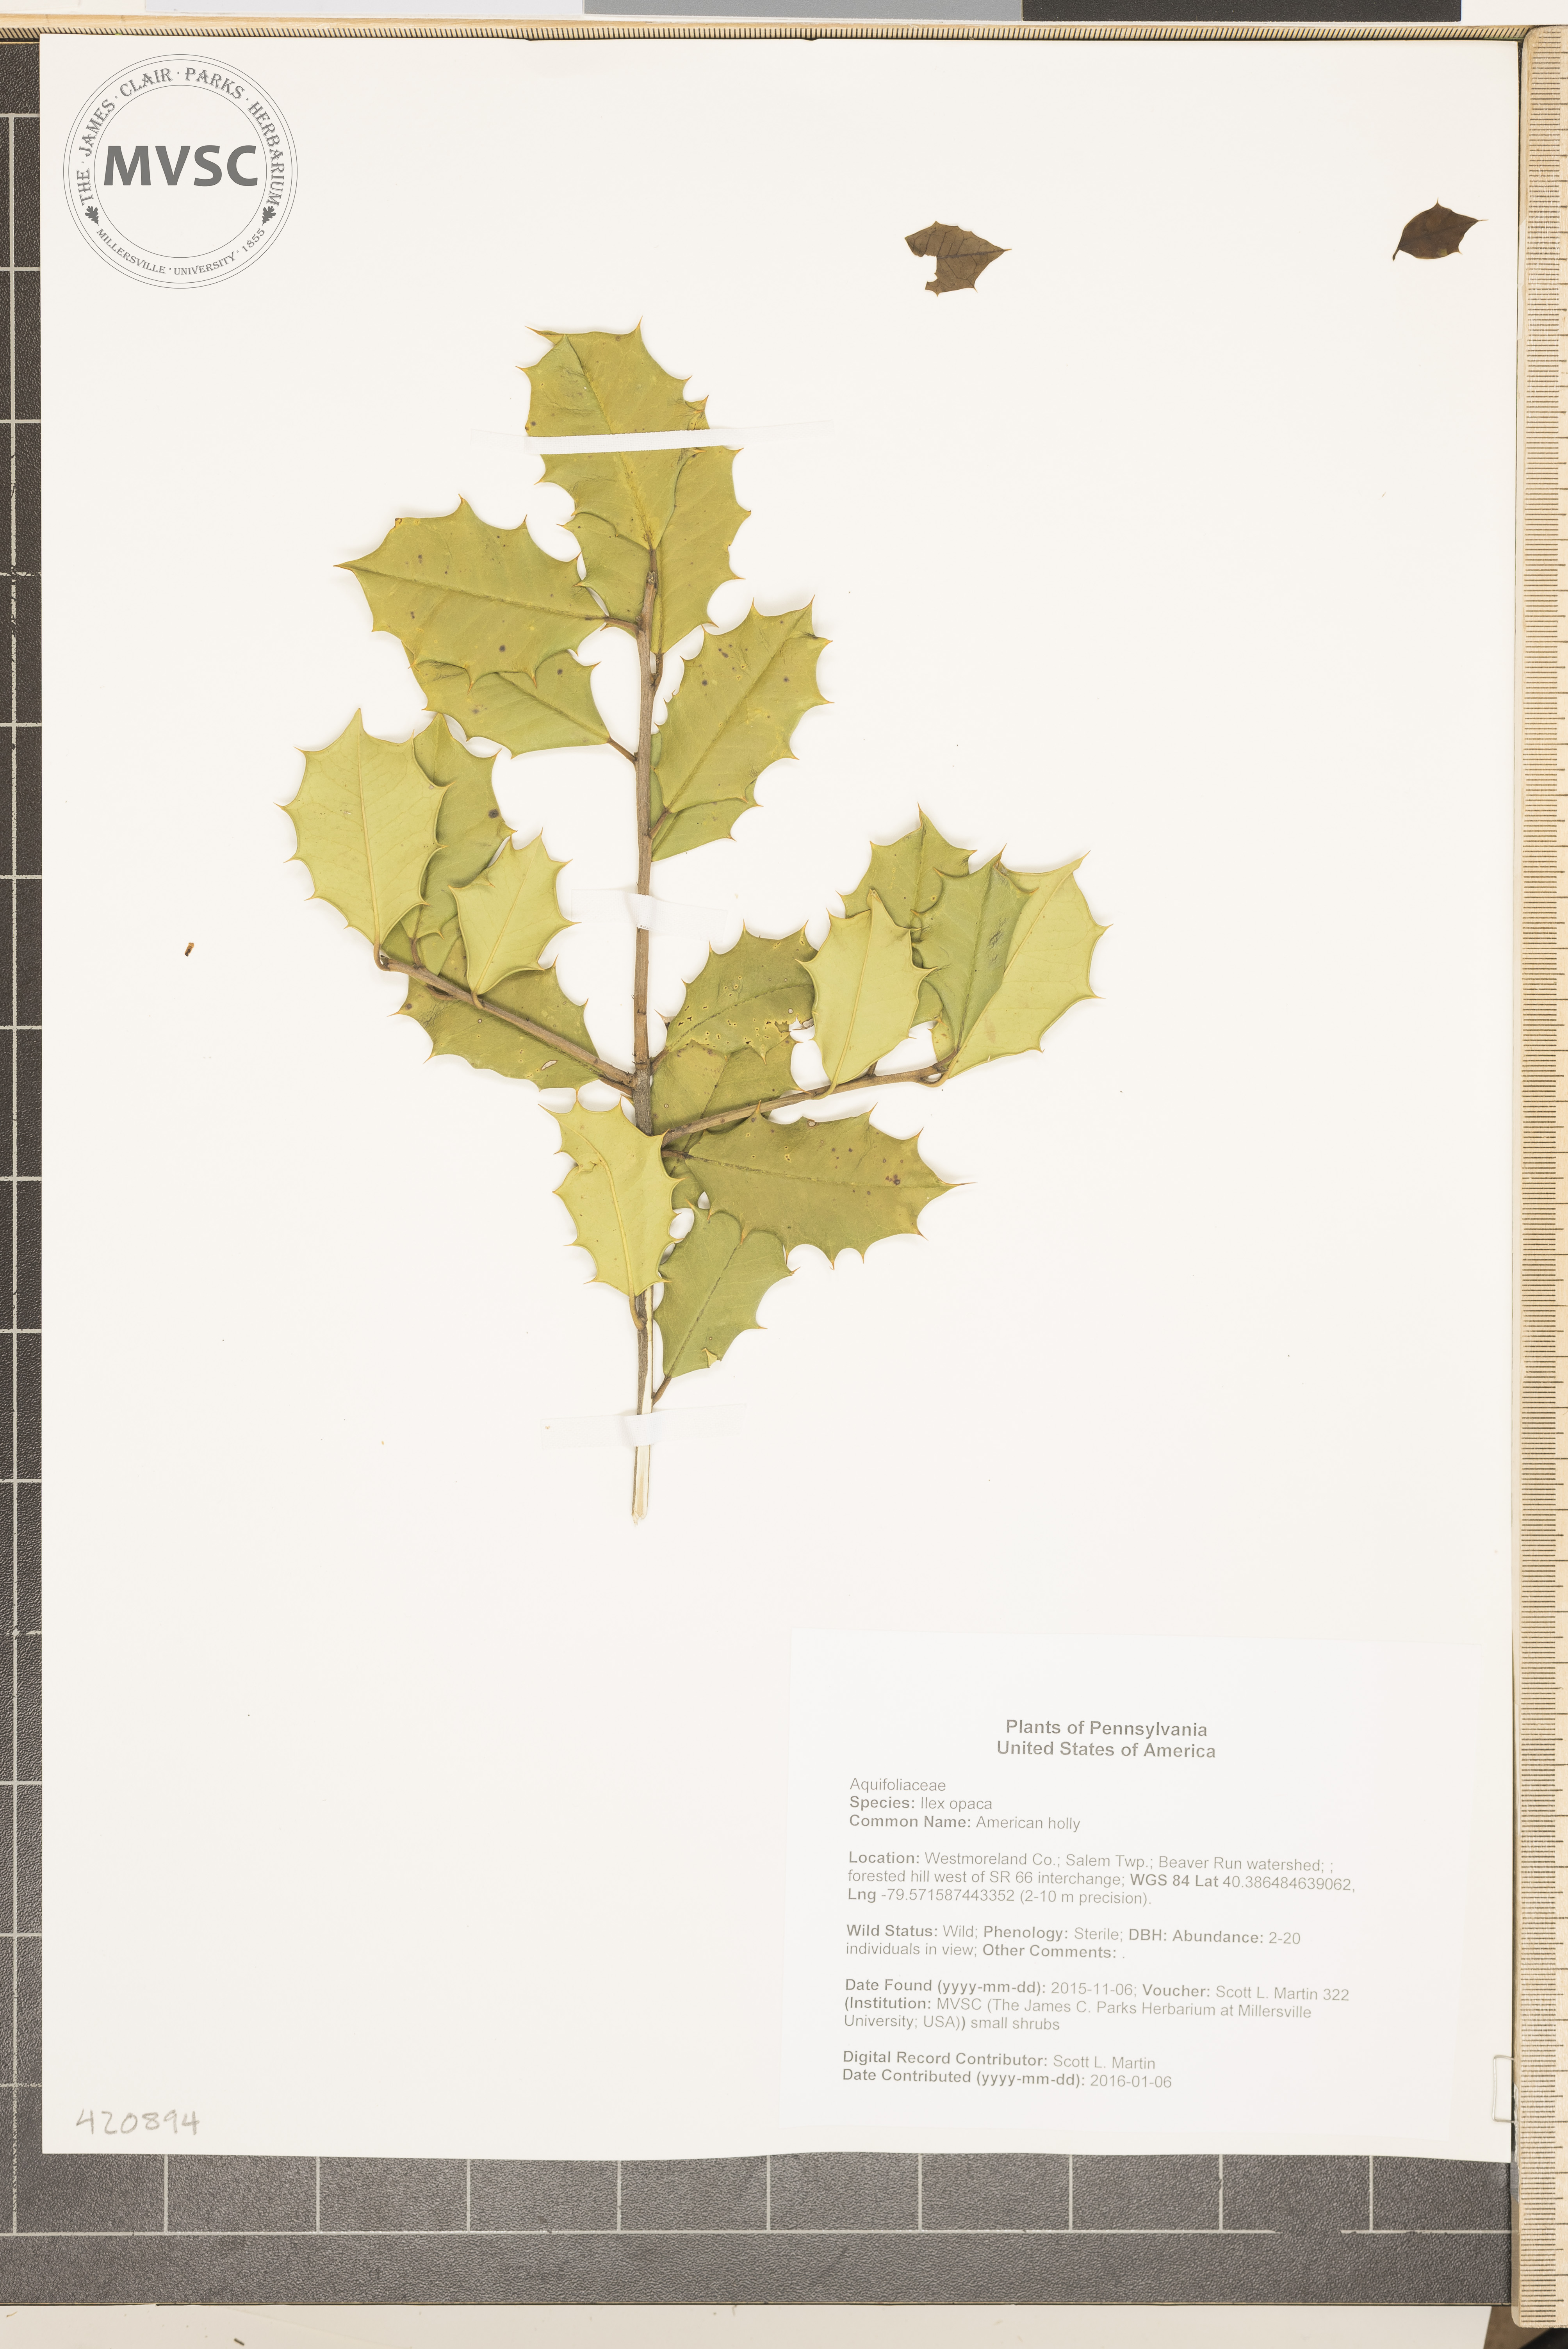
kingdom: Plantae
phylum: Tracheophyta
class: Magnoliopsida
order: Aquifoliales
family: Aquifoliaceae
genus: Ilex
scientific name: Ilex opaca
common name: American holly
